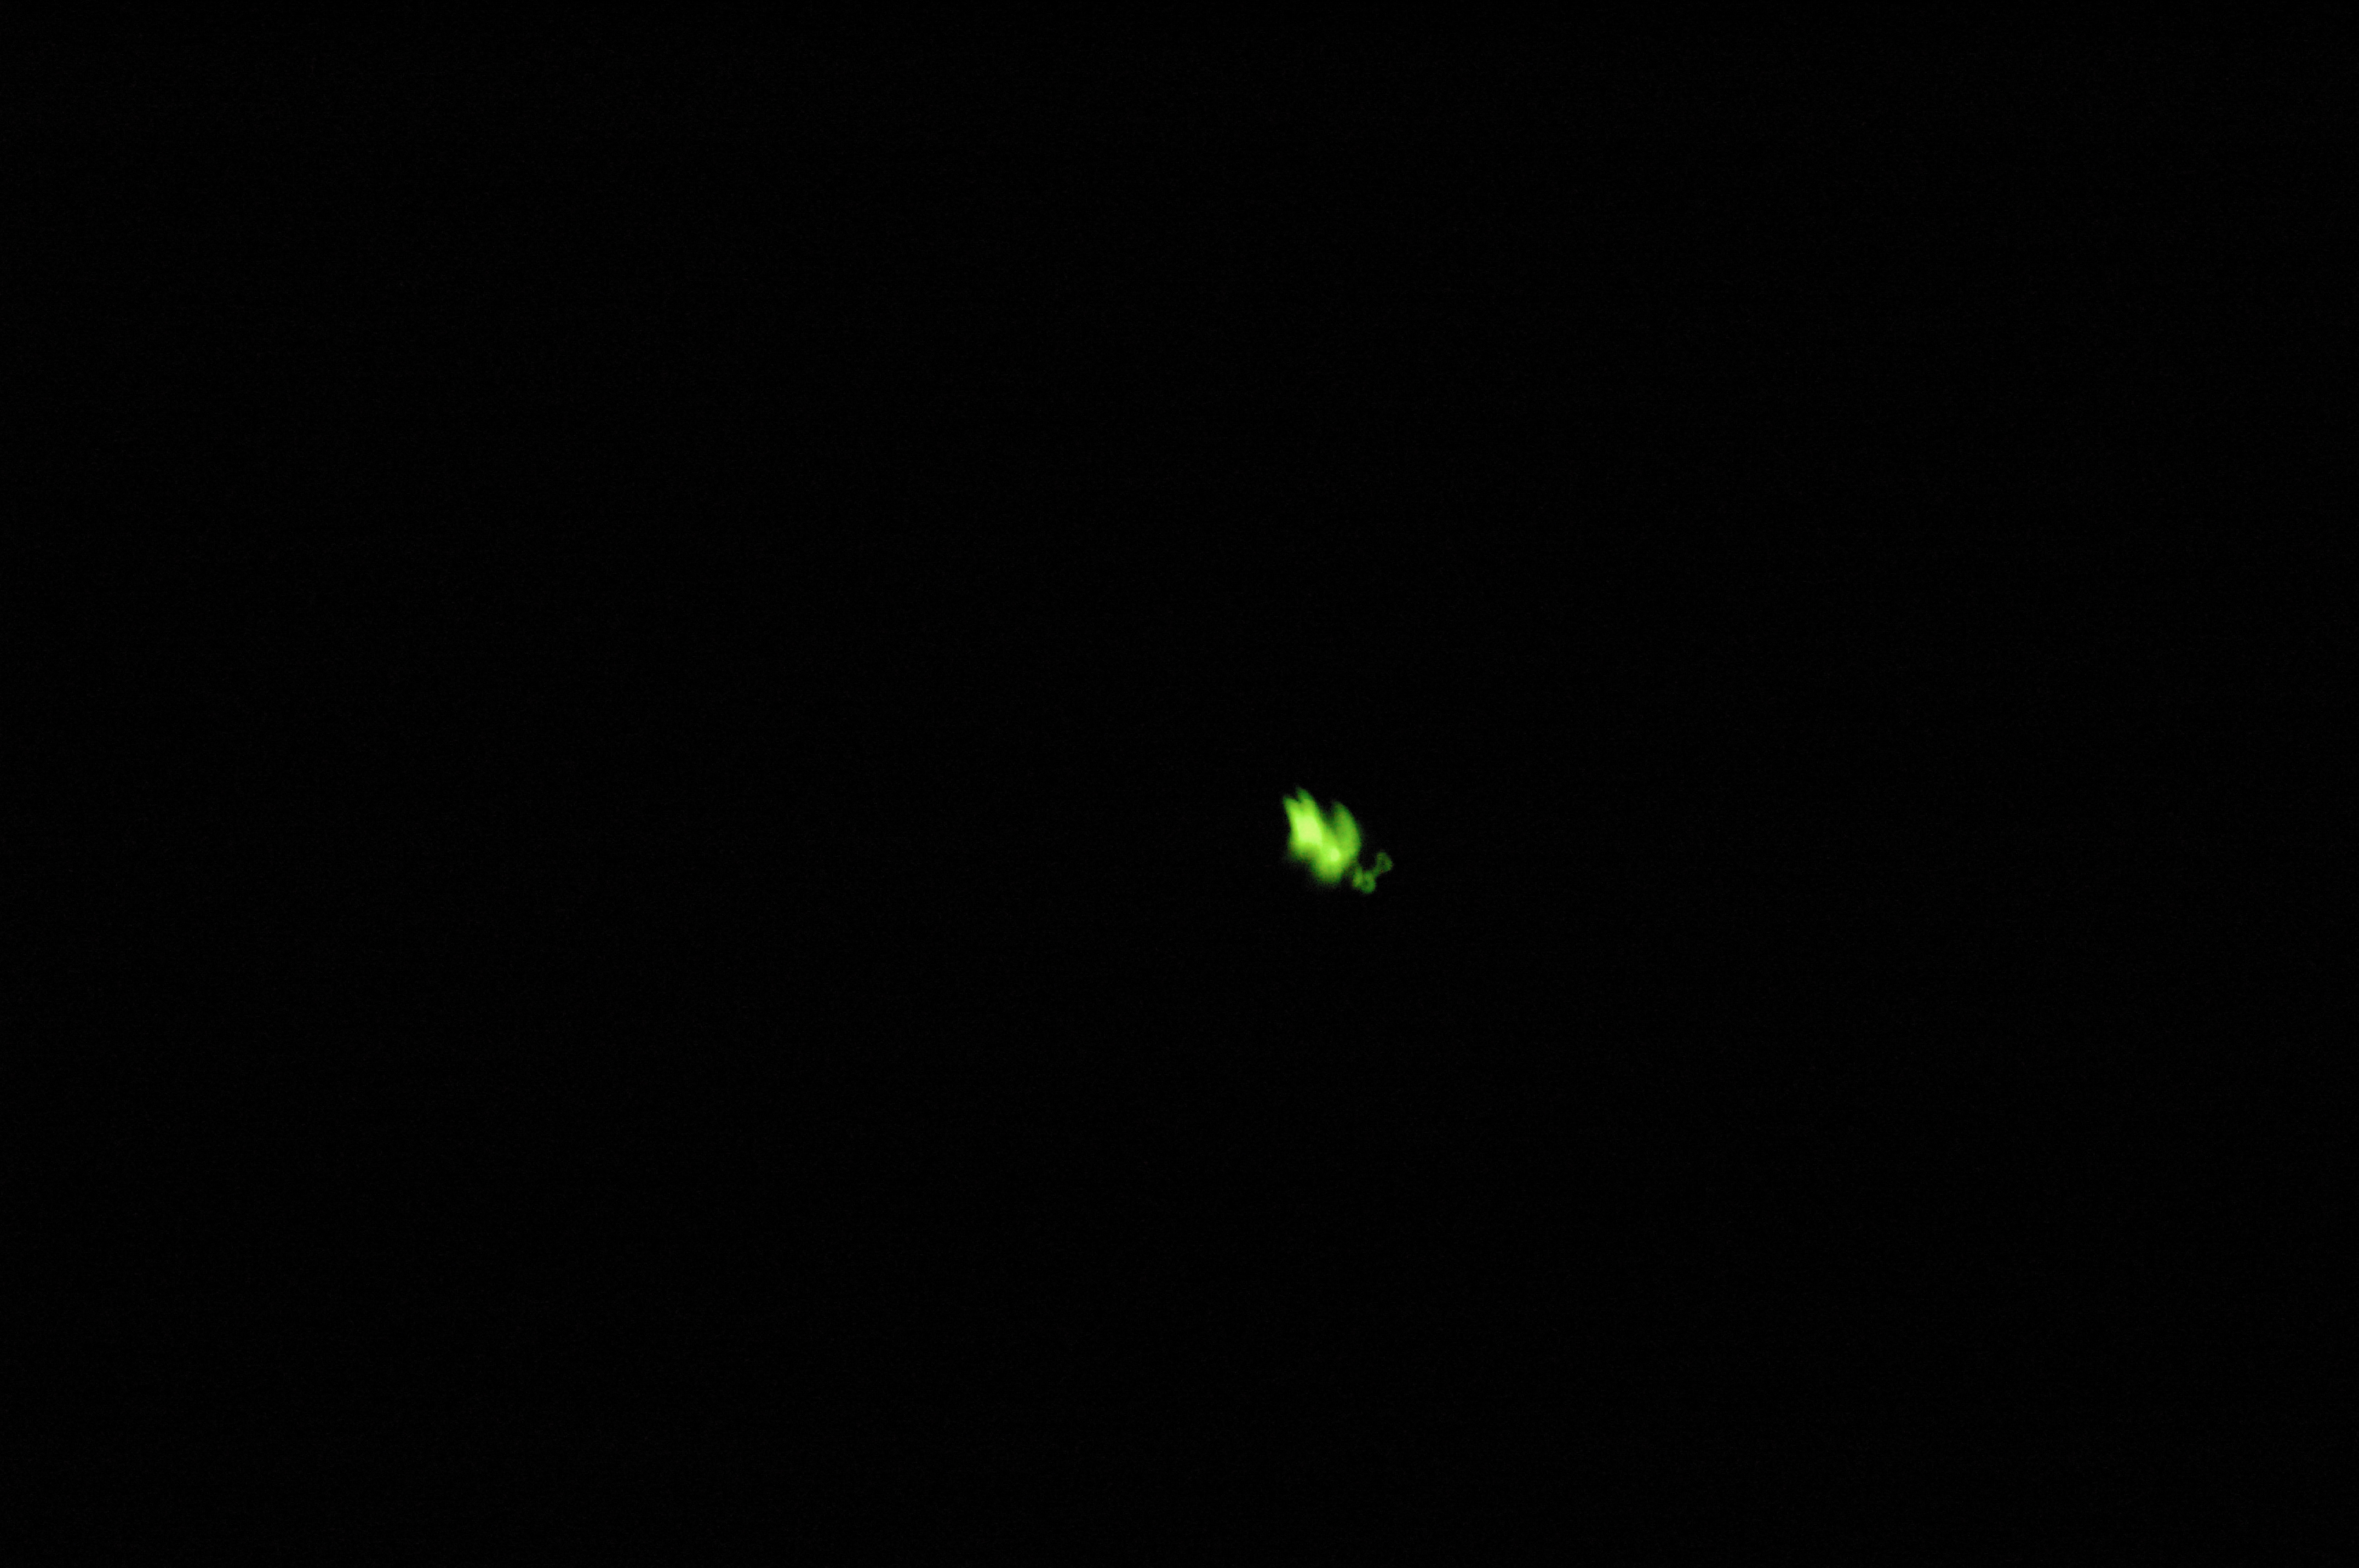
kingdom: Animalia
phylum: Arthropoda
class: Insecta
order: Coleoptera
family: Lampyridae
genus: Lampyris
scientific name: Lampyris noctiluca
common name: Glow-worm
